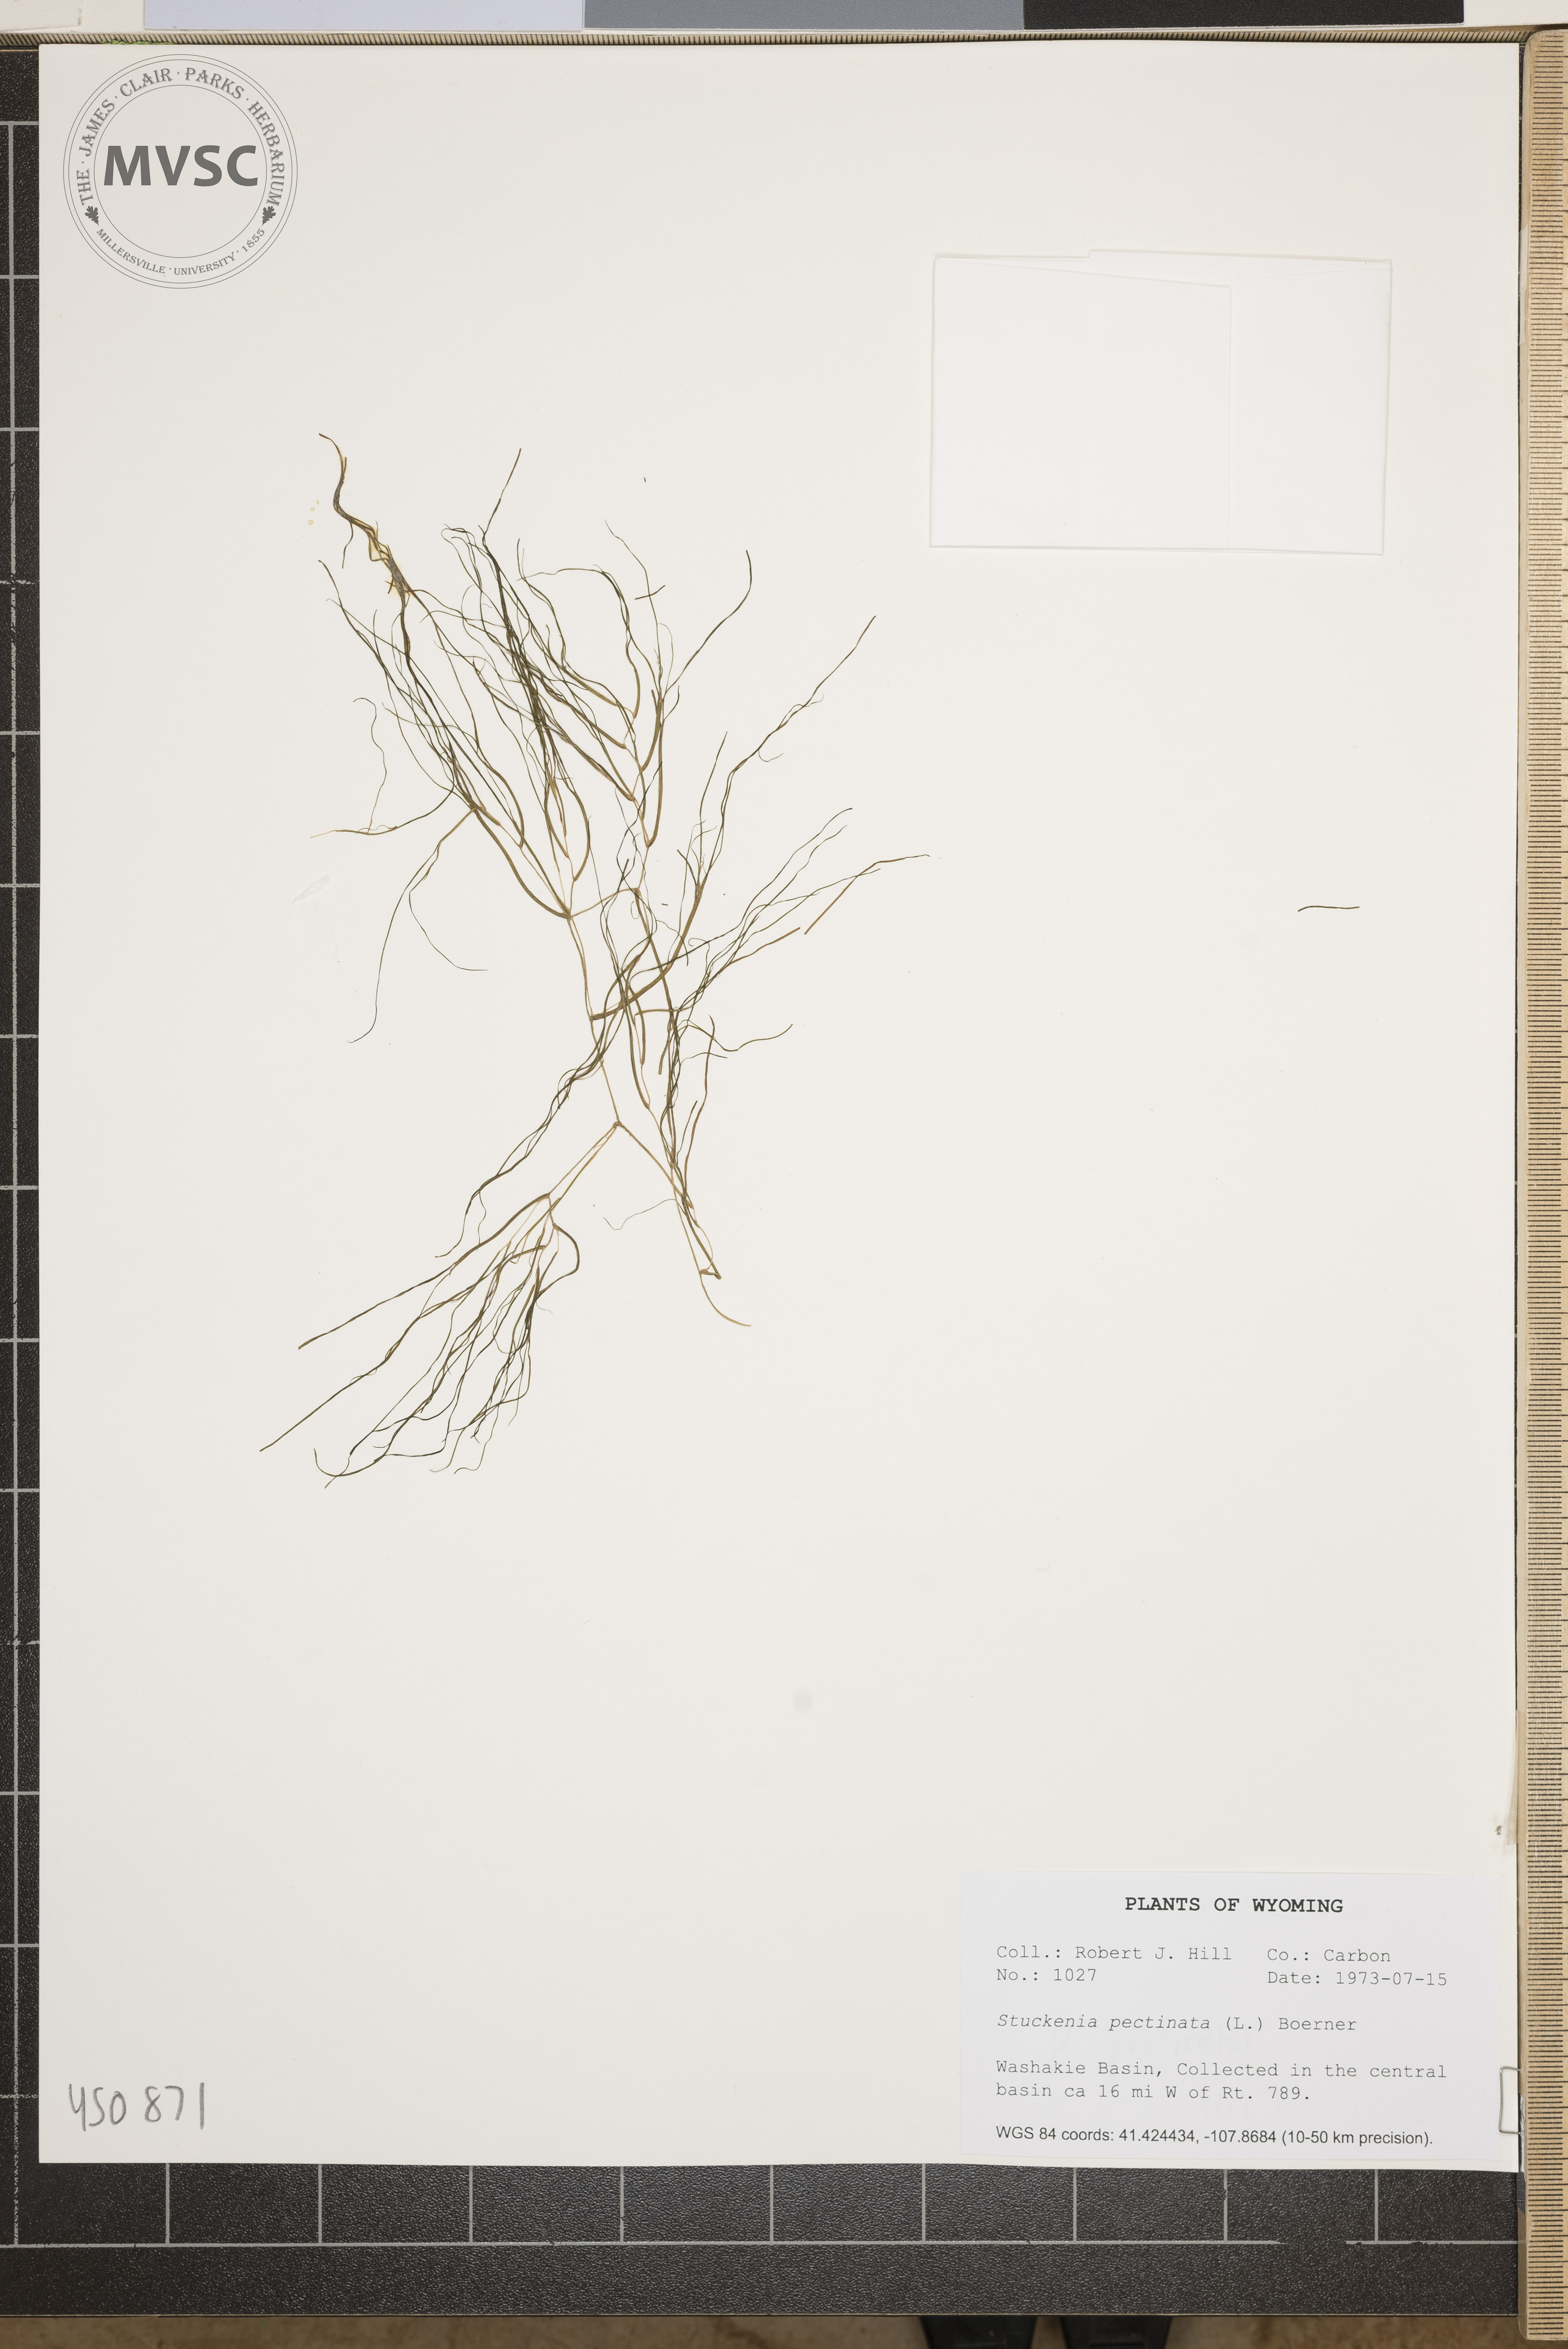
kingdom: Plantae
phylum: Tracheophyta
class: Liliopsida
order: Alismatales
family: Potamogetonaceae
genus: Stuckenia
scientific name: Stuckenia pectinata
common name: Sago pondweed
